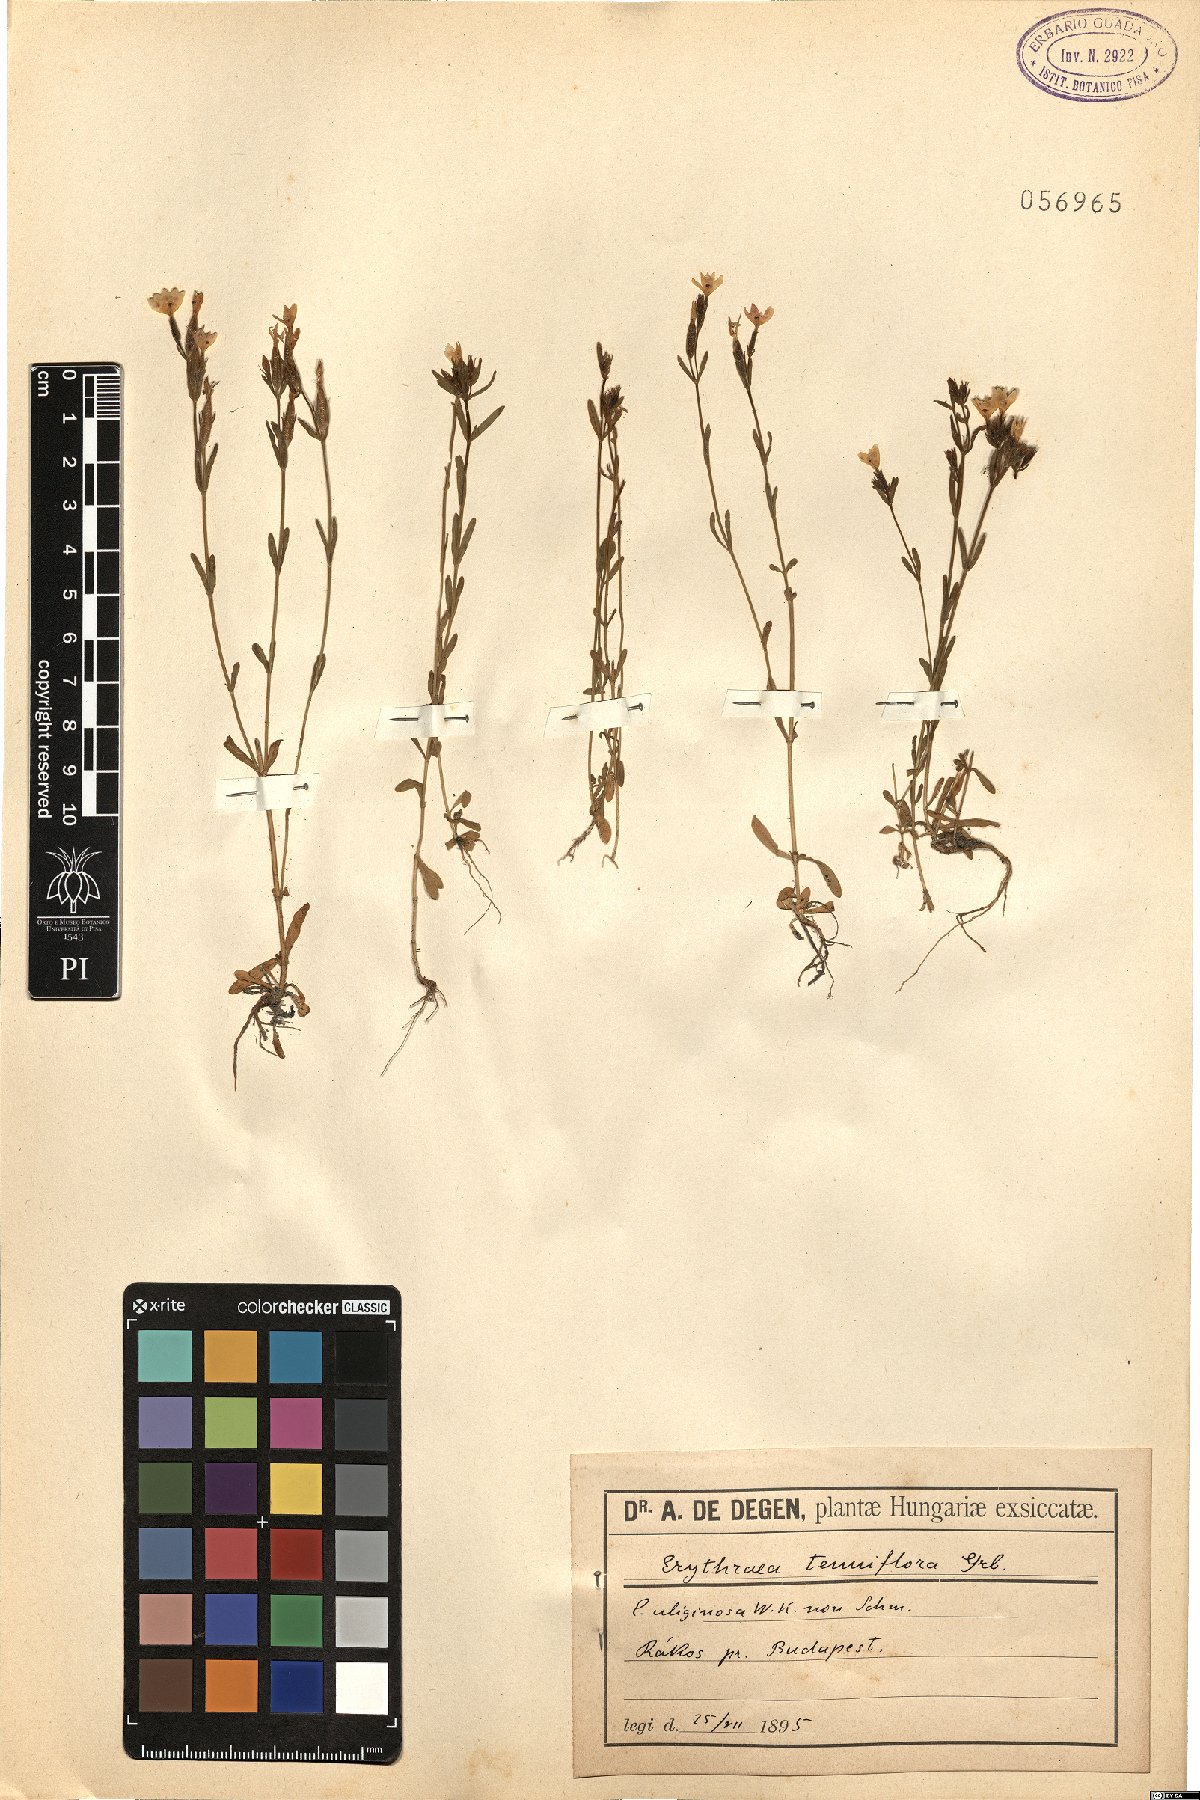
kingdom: Plantae
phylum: Tracheophyta
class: Magnoliopsida
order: Gentianales
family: Gentianaceae
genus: Centaurium
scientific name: Centaurium tenuiflorum
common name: Slender centaury
